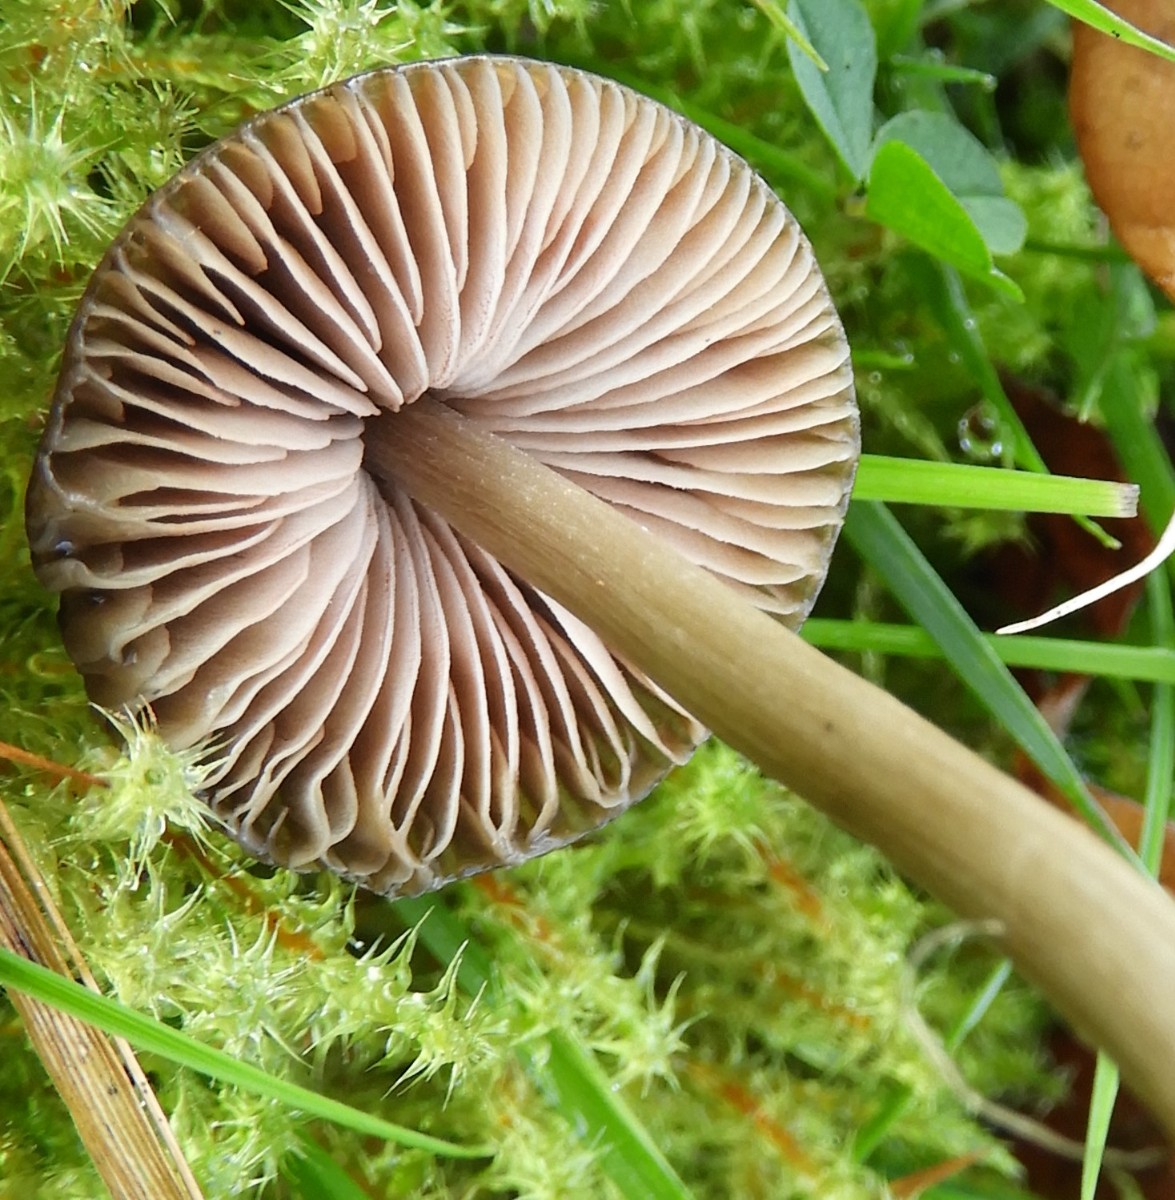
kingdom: Fungi
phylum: Basidiomycota
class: Agaricomycetes
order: Agaricales
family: Entolomataceae
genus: Entoloma
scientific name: Entoloma
